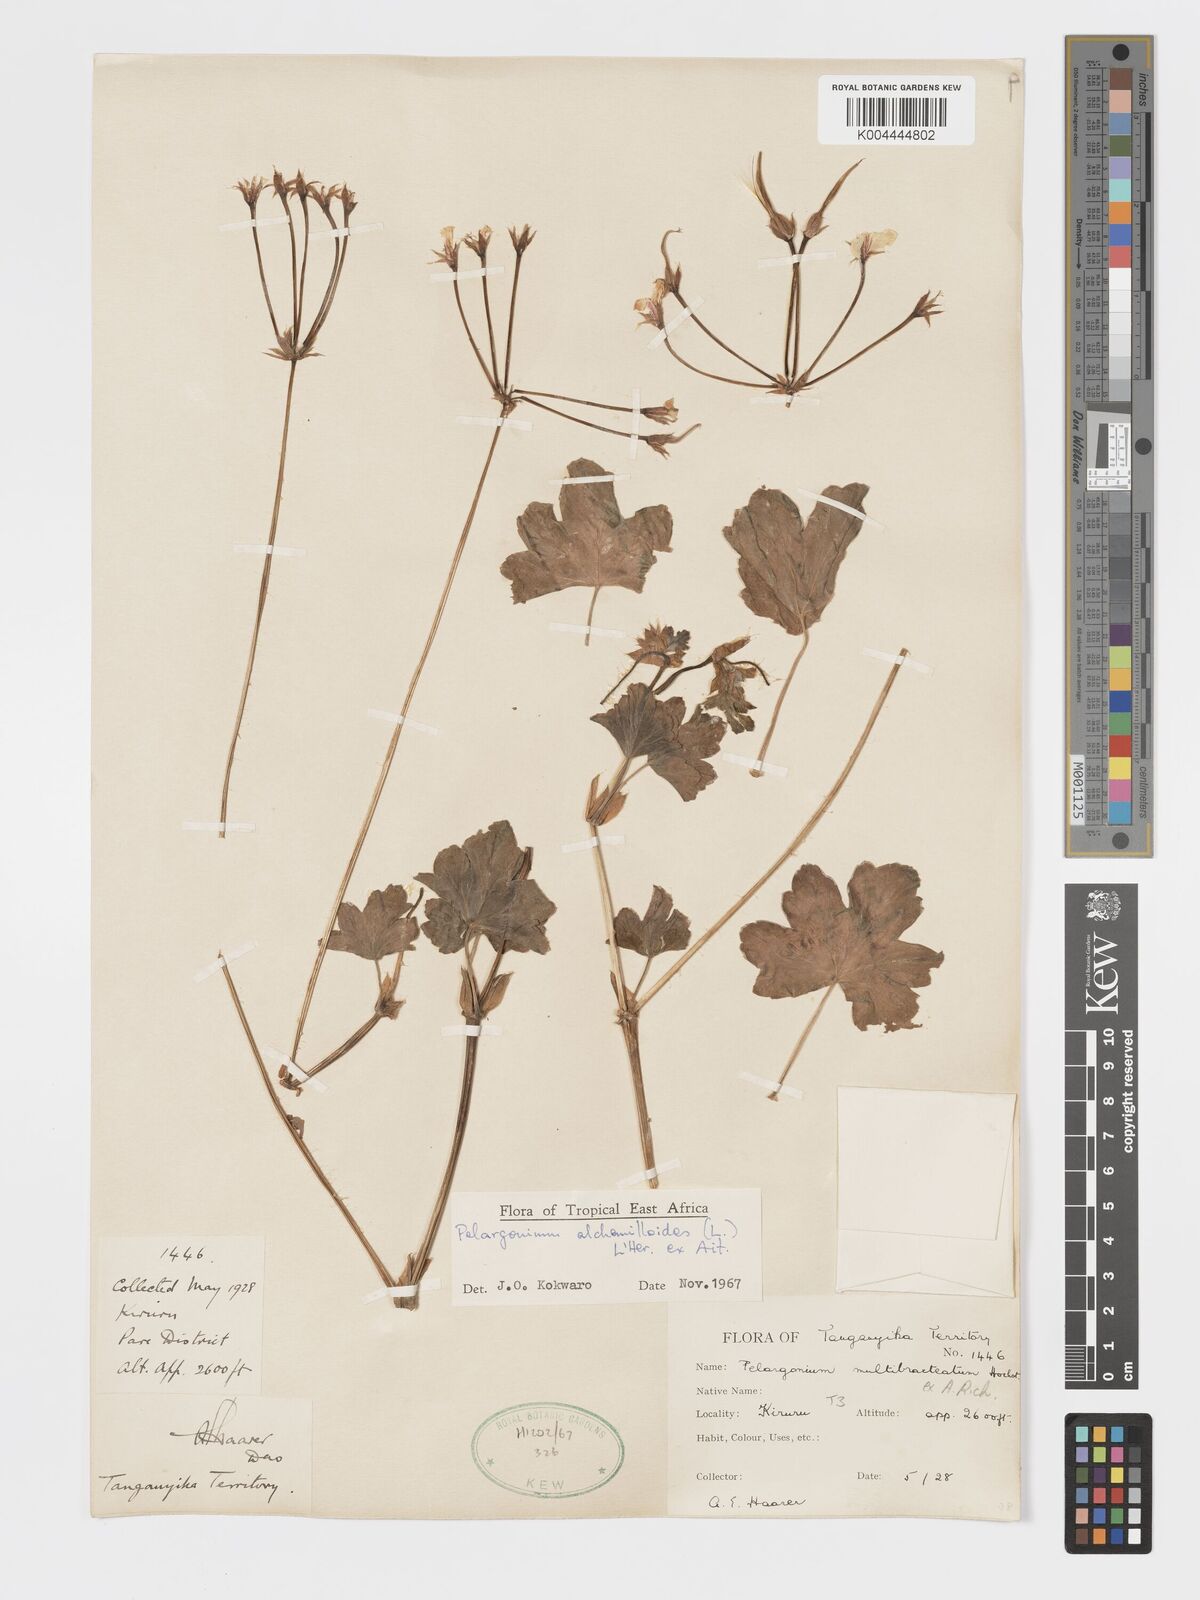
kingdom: Plantae
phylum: Tracheophyta
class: Magnoliopsida
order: Geraniales
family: Geraniaceae
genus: Pelargonium
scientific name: Pelargonium alchemilloides
